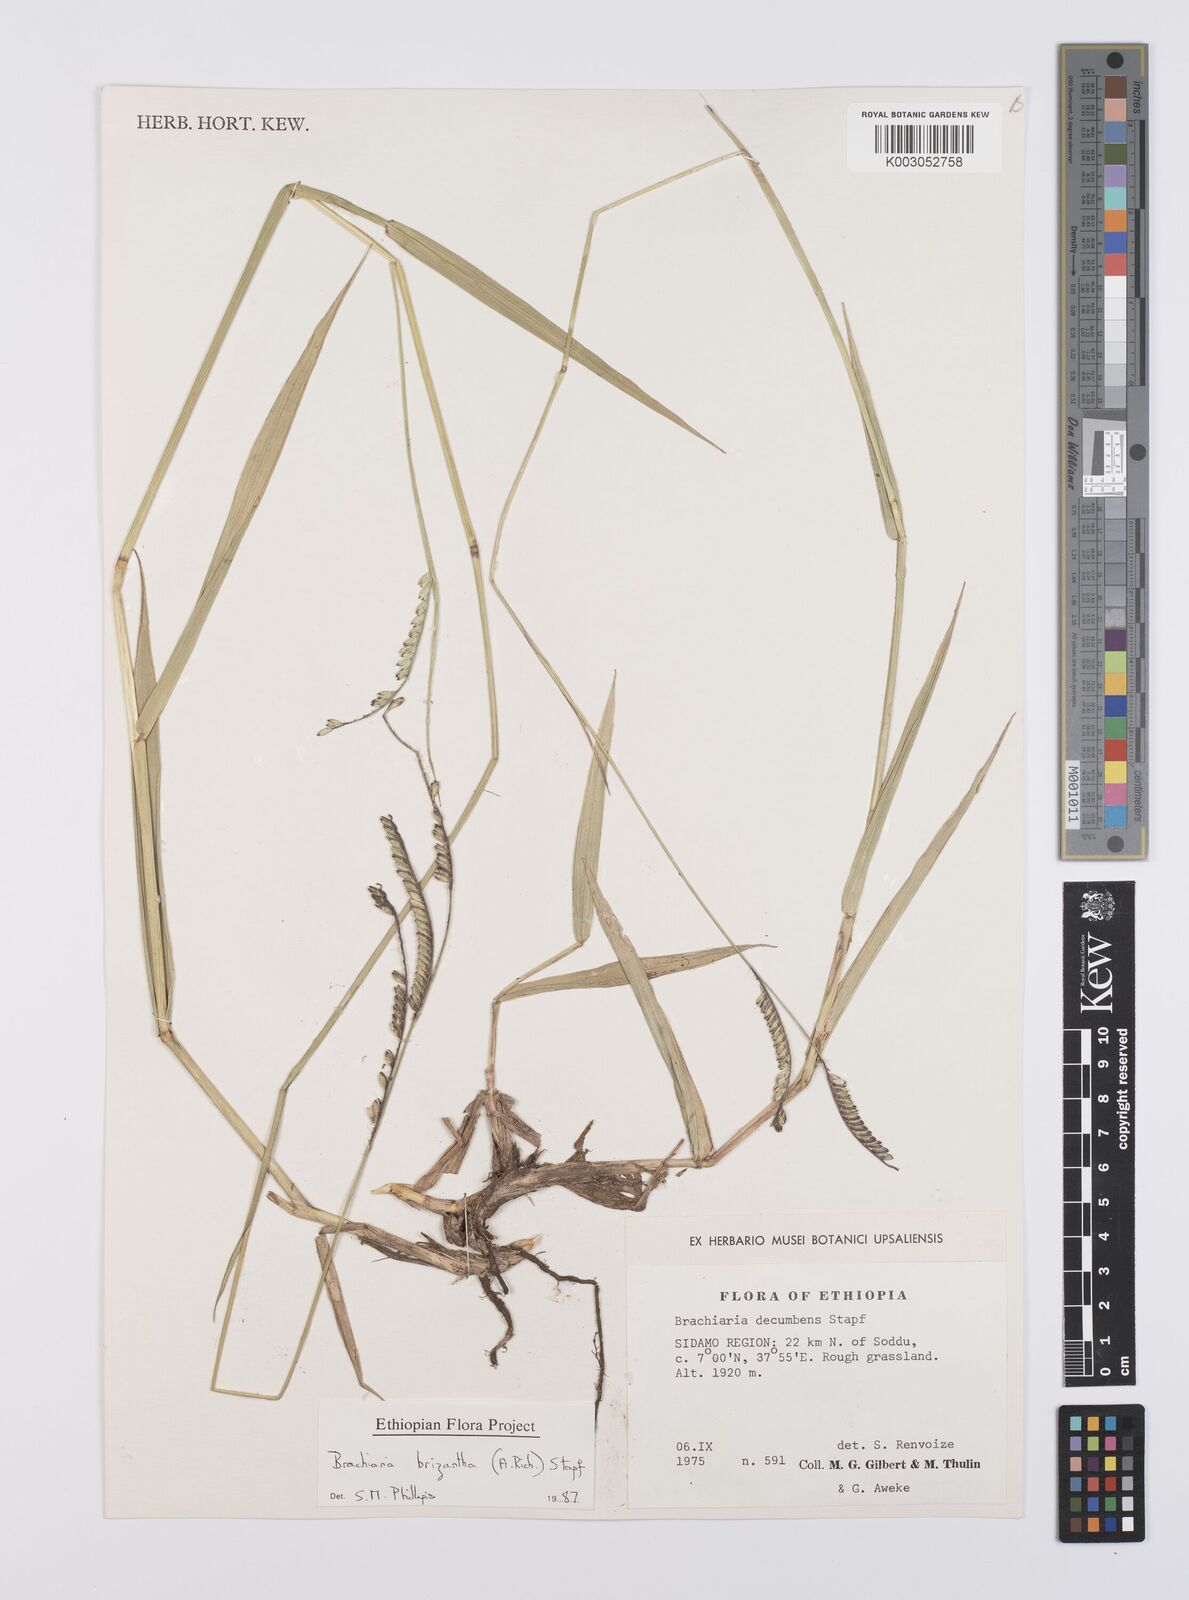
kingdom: Plantae
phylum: Tracheophyta
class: Liliopsida
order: Poales
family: Poaceae
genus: Urochloa
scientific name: Urochloa brizantha
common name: Palisade signalgrass
